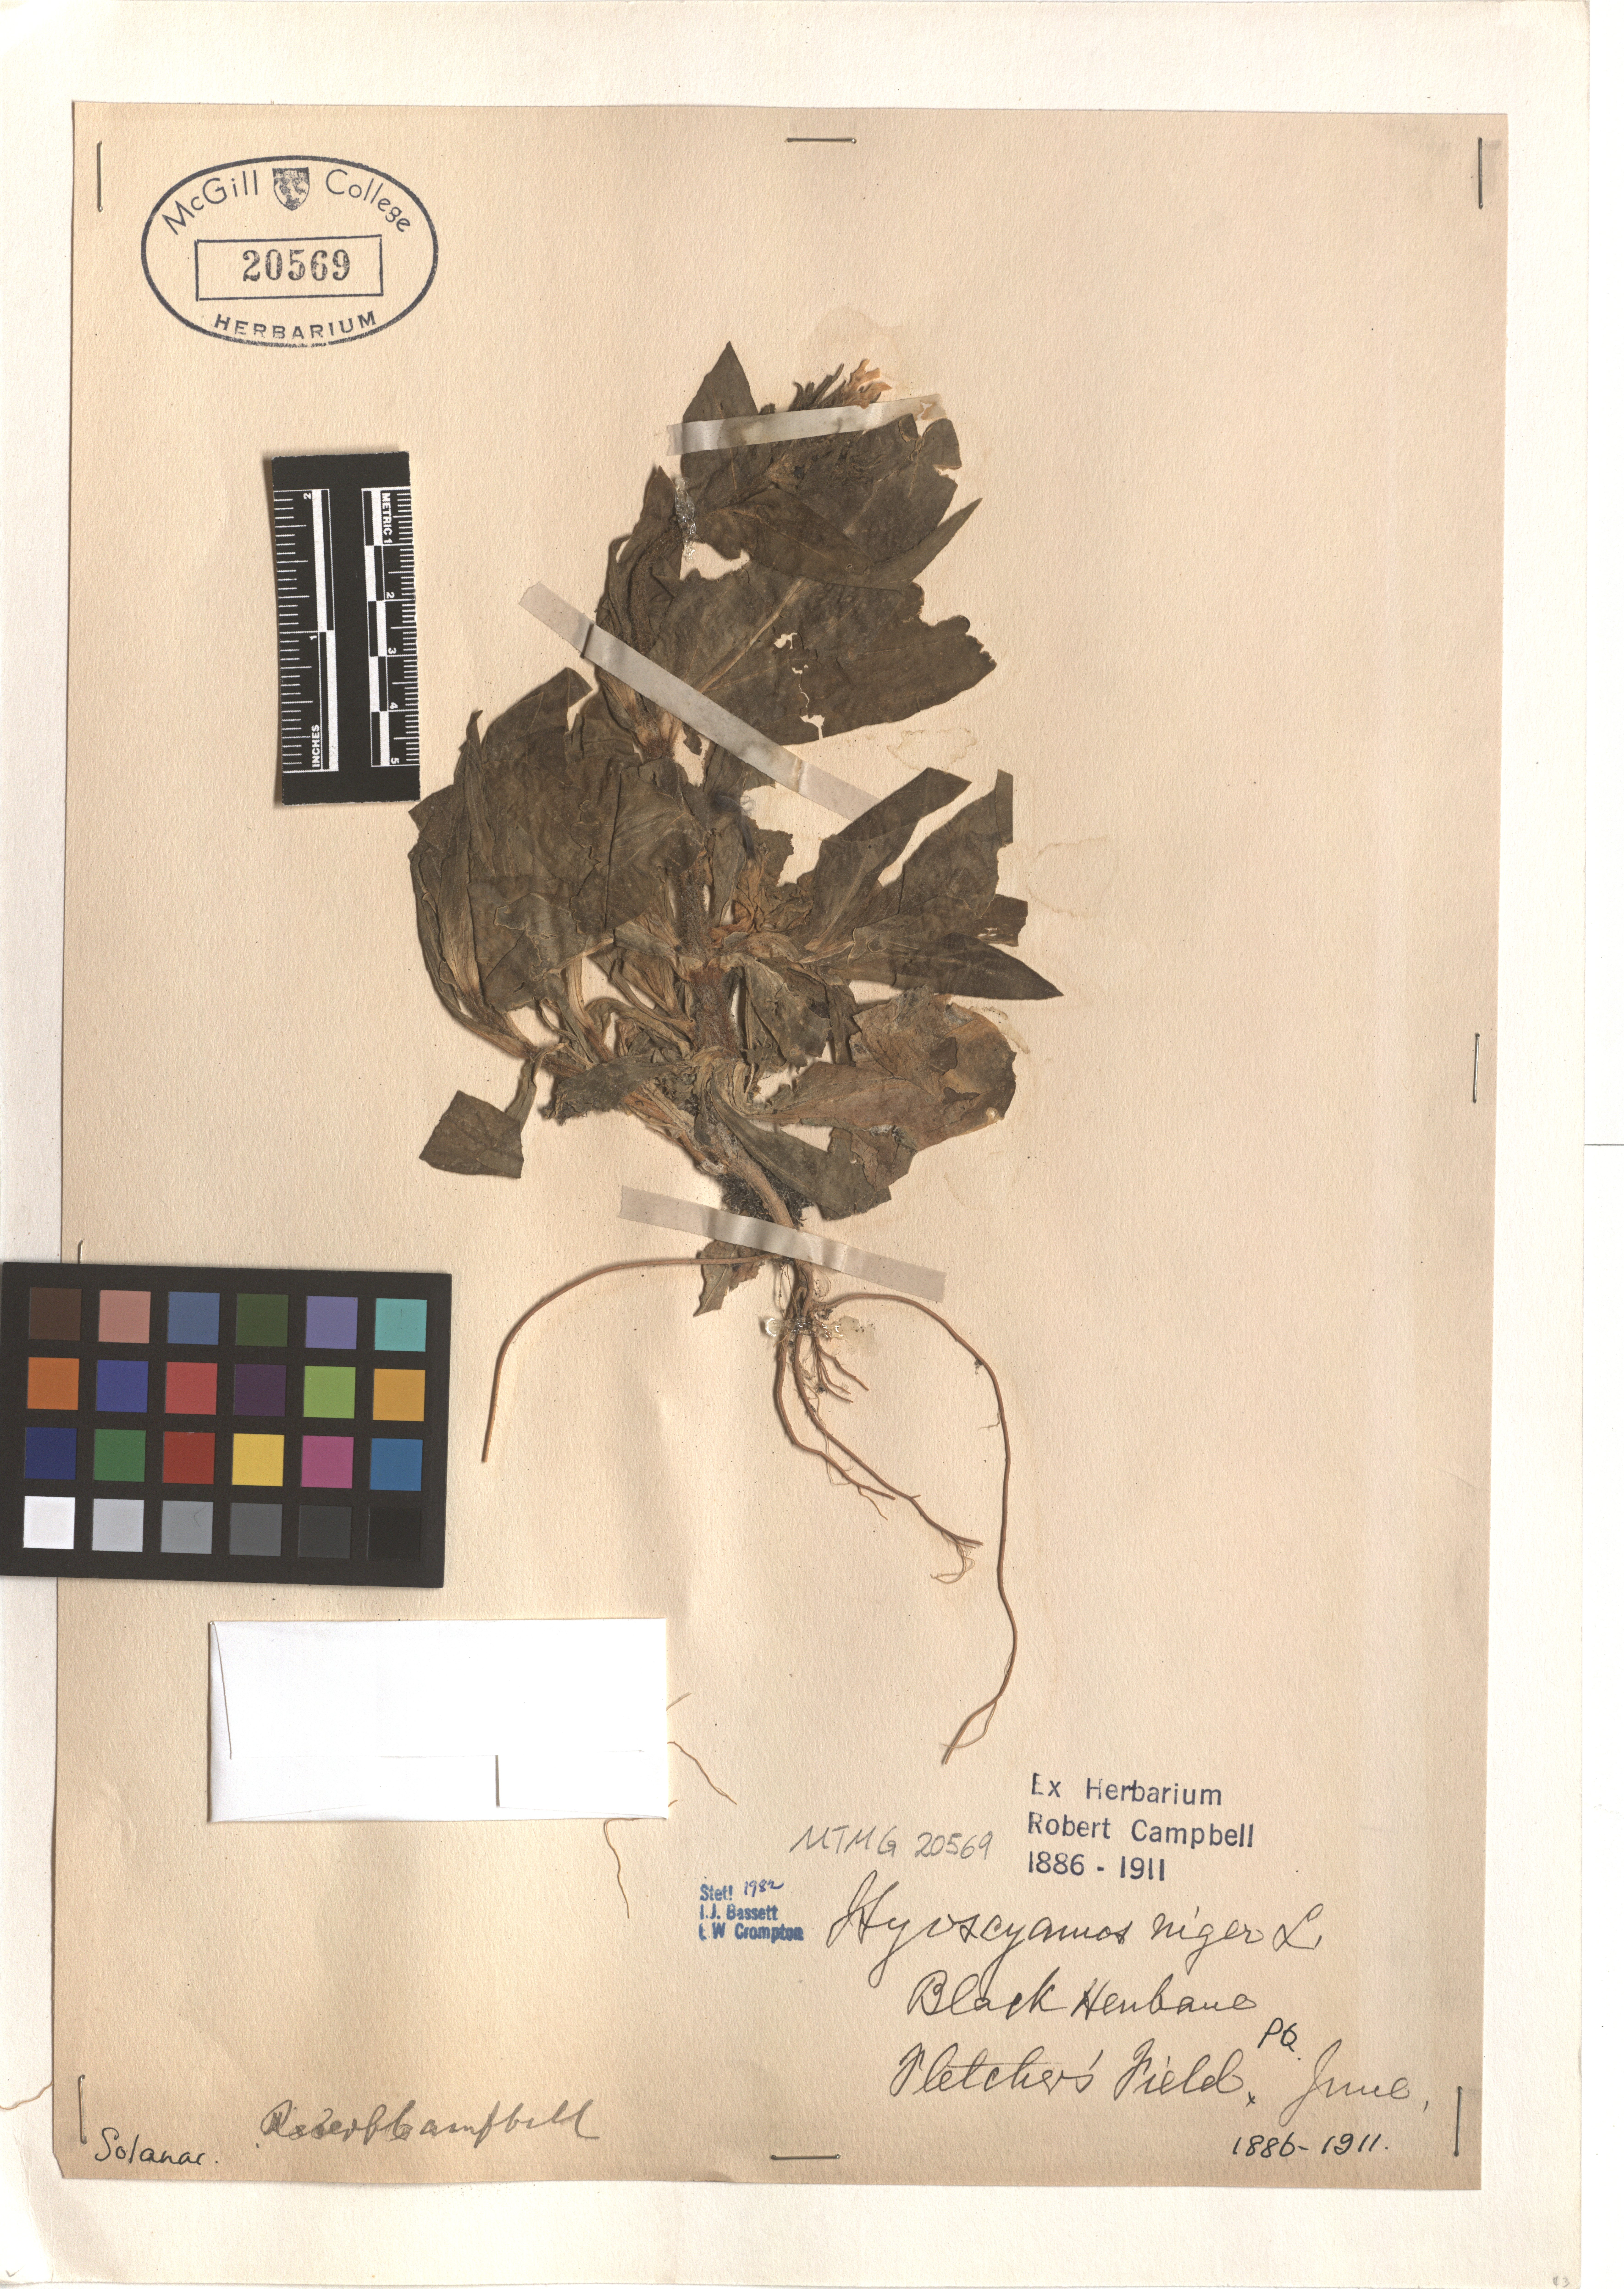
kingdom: Plantae
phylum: Tracheophyta
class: Magnoliopsida
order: Solanales
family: Solanaceae
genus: Hyoscyamus
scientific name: Hyoscyamus niger
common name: Henbane
